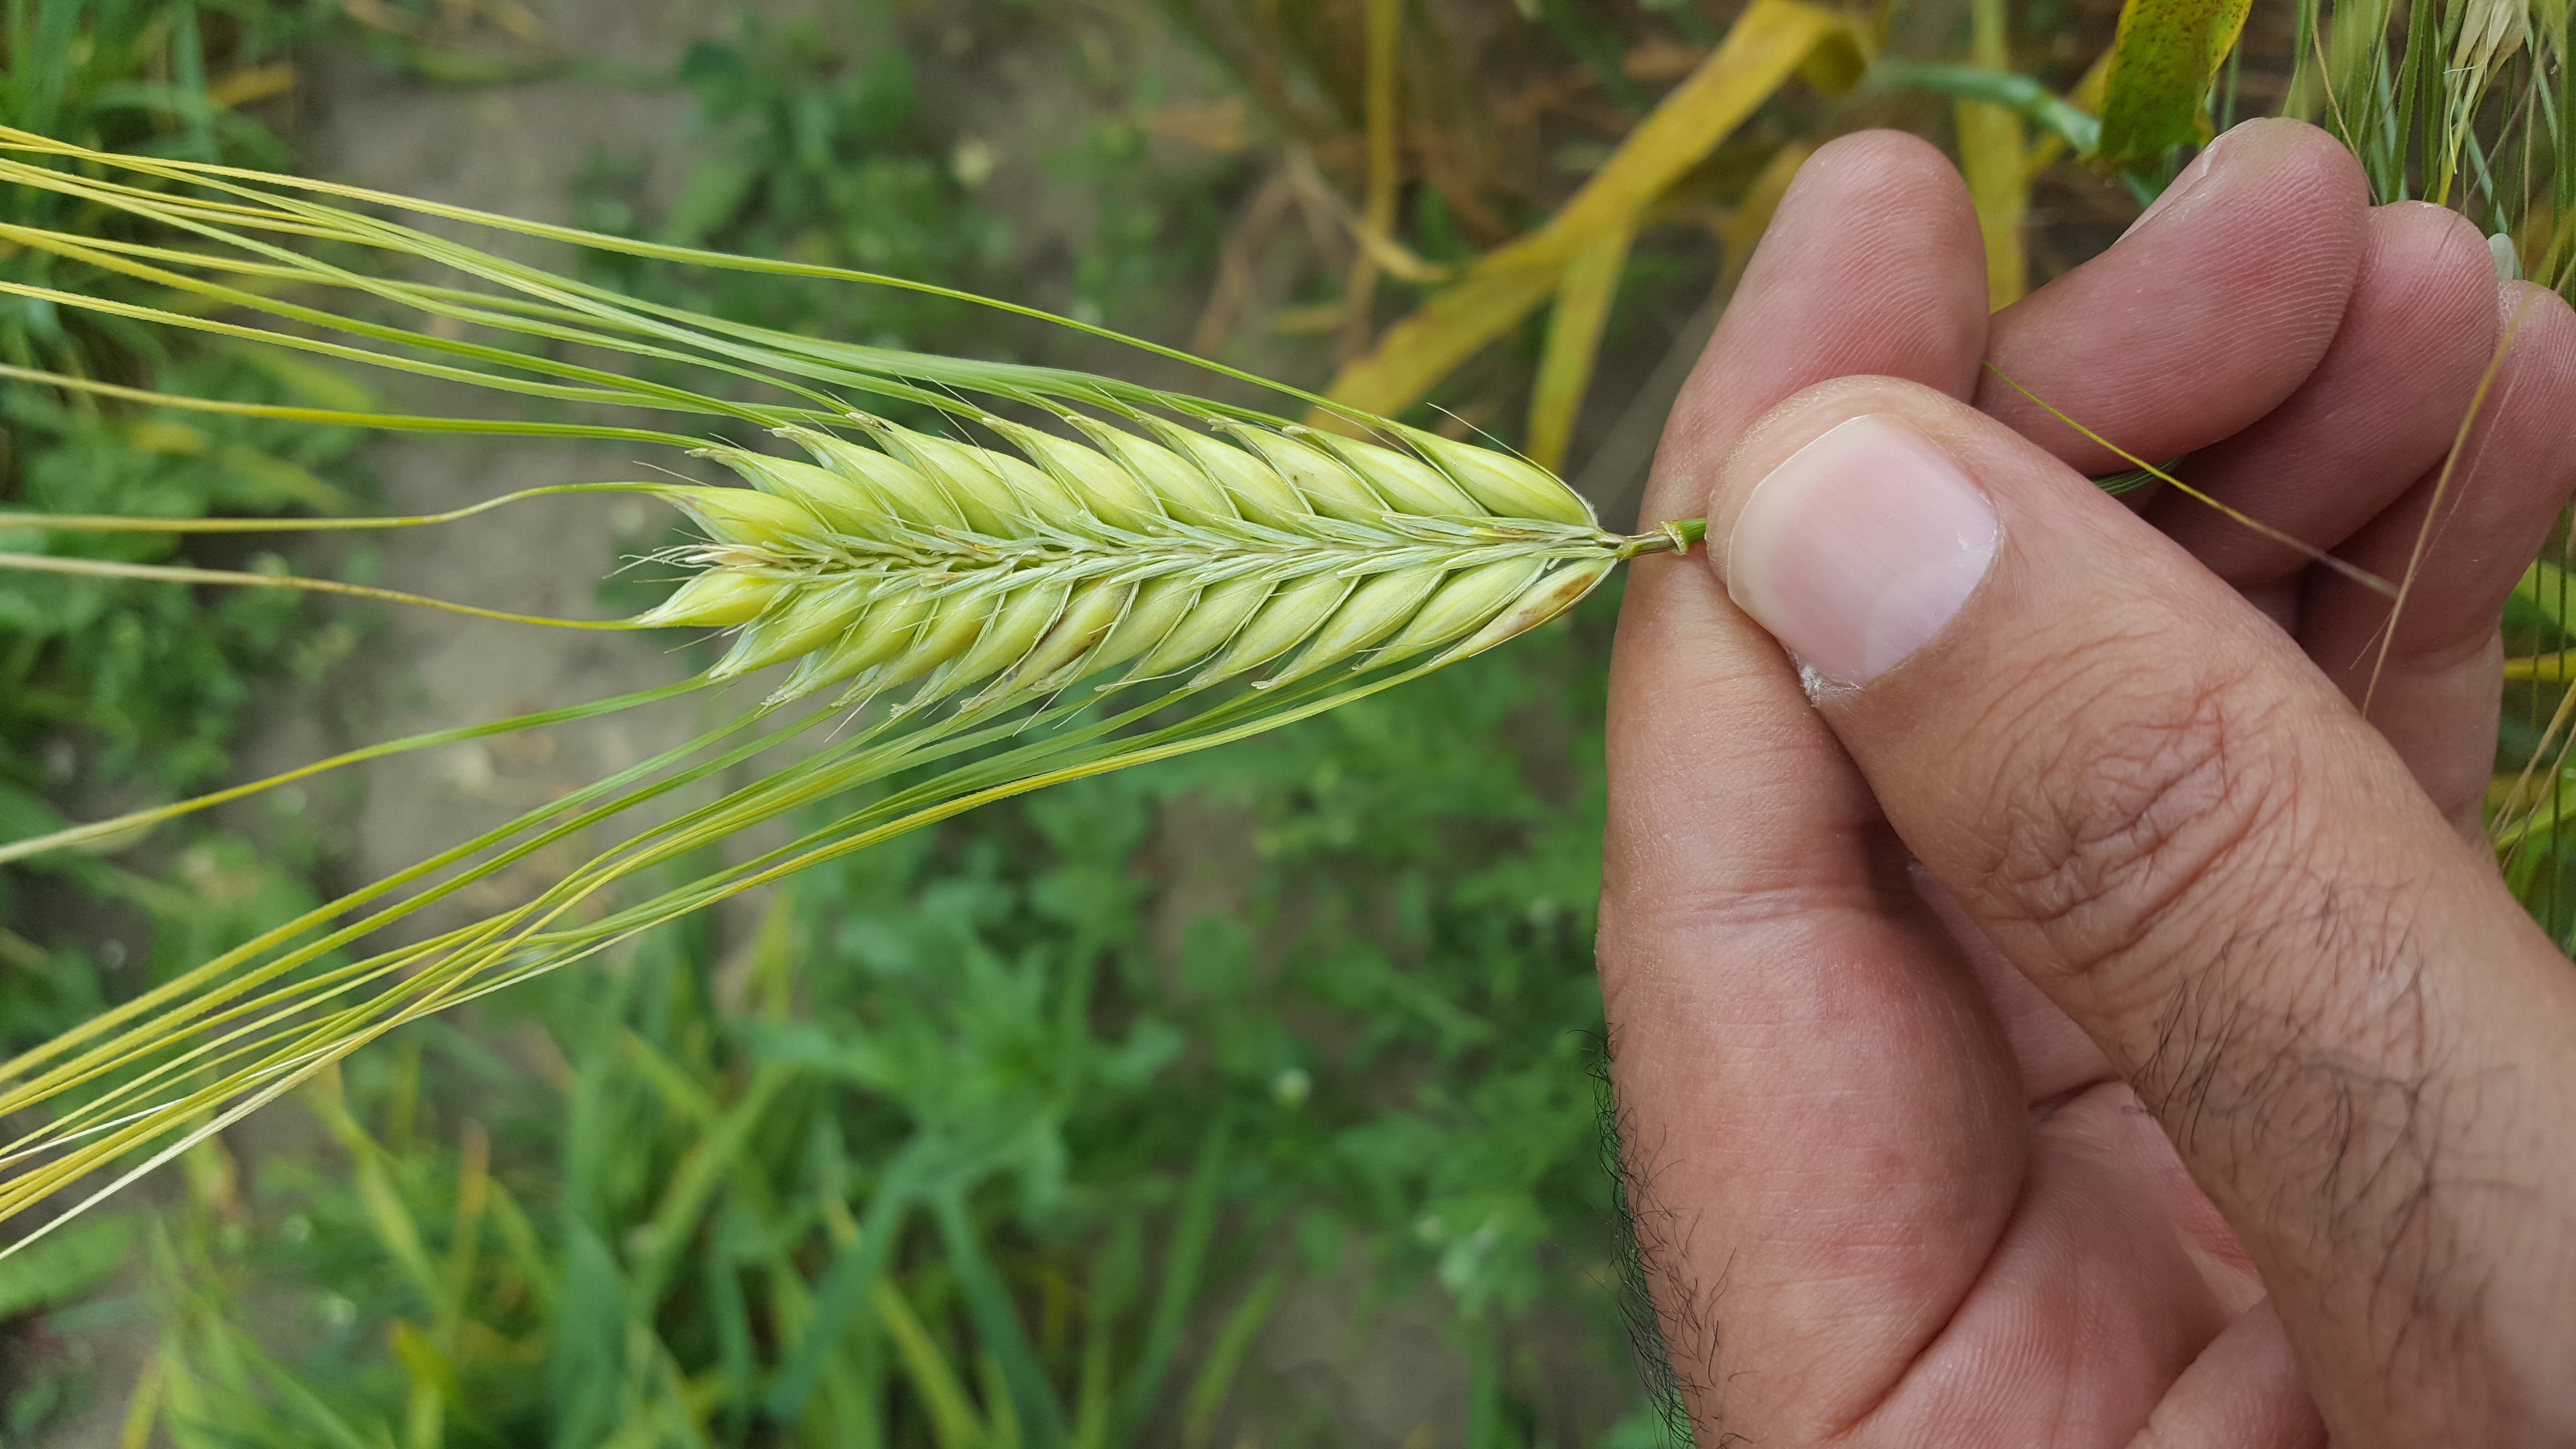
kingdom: Plantae
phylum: Tracheophyta
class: Liliopsida
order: Poales
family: Poaceae
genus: Hordeum
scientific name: Hordeum vulgare
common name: Common barley
